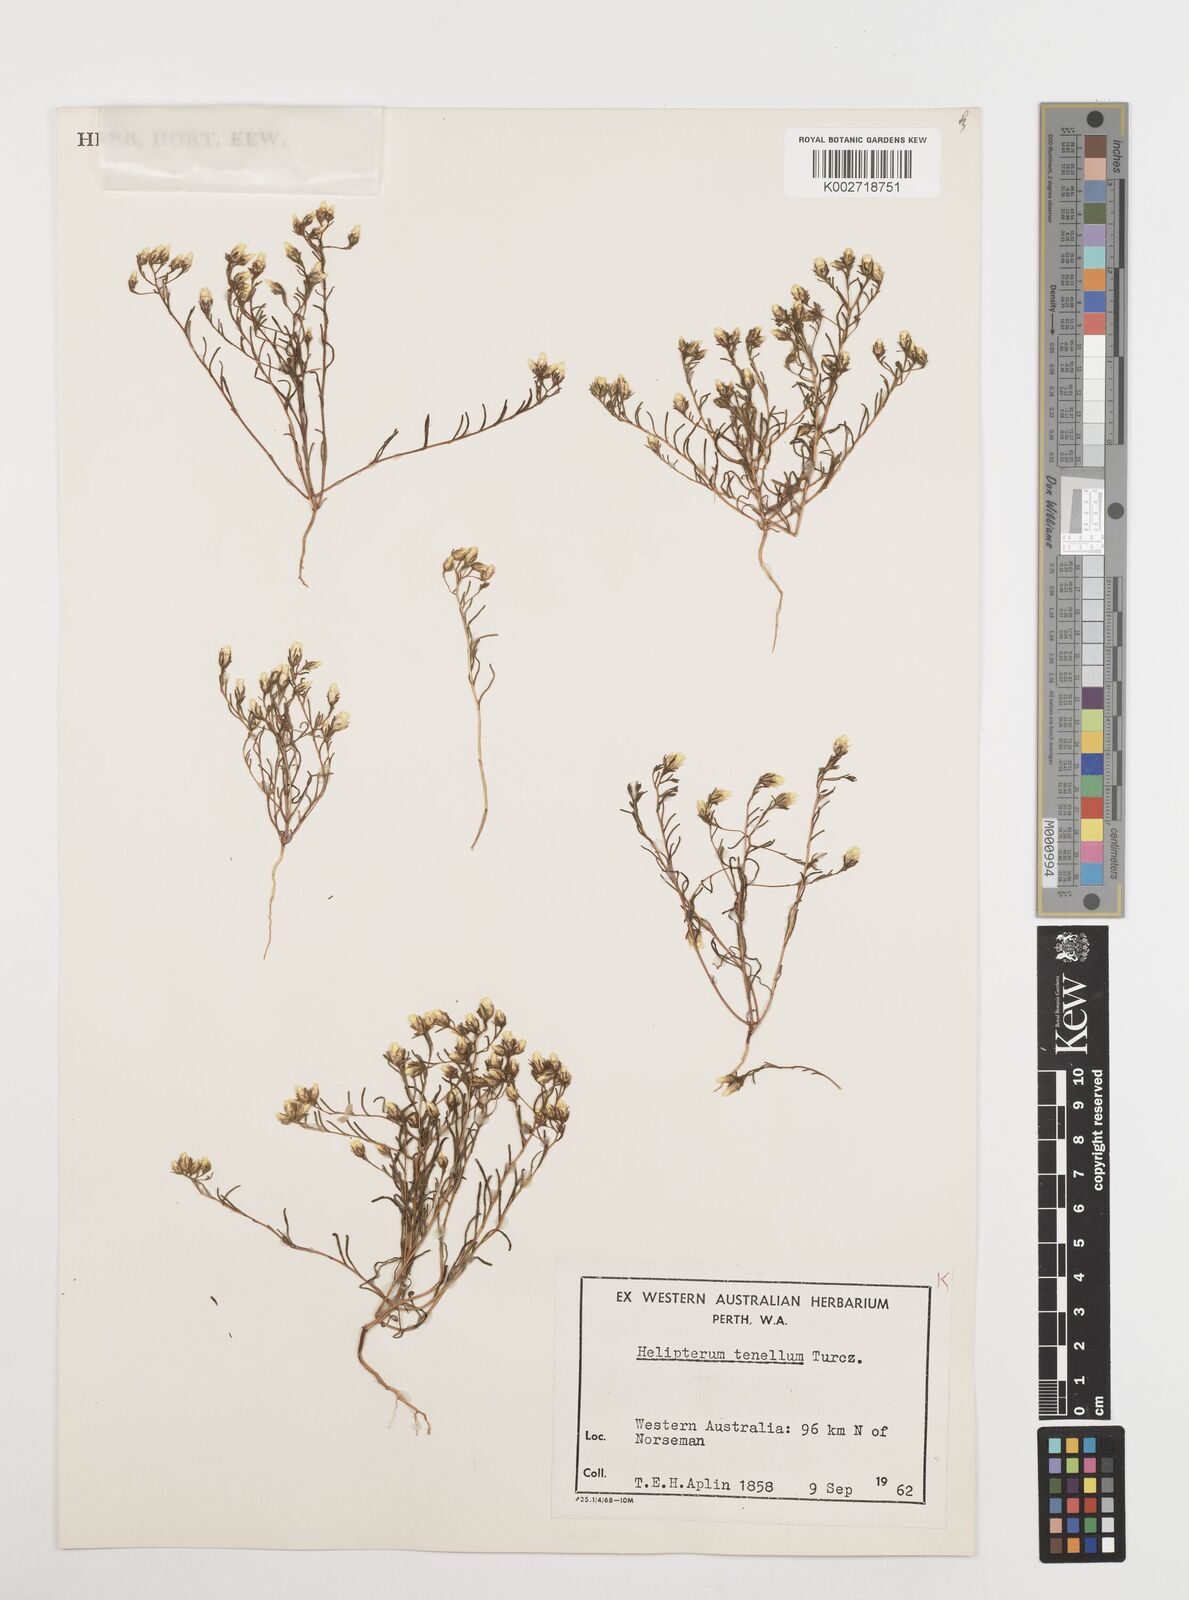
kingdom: Plantae
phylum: Tracheophyta
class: Magnoliopsida
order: Asterales
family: Asteraceae
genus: Erymophyllum
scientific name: Erymophyllum tenellum
